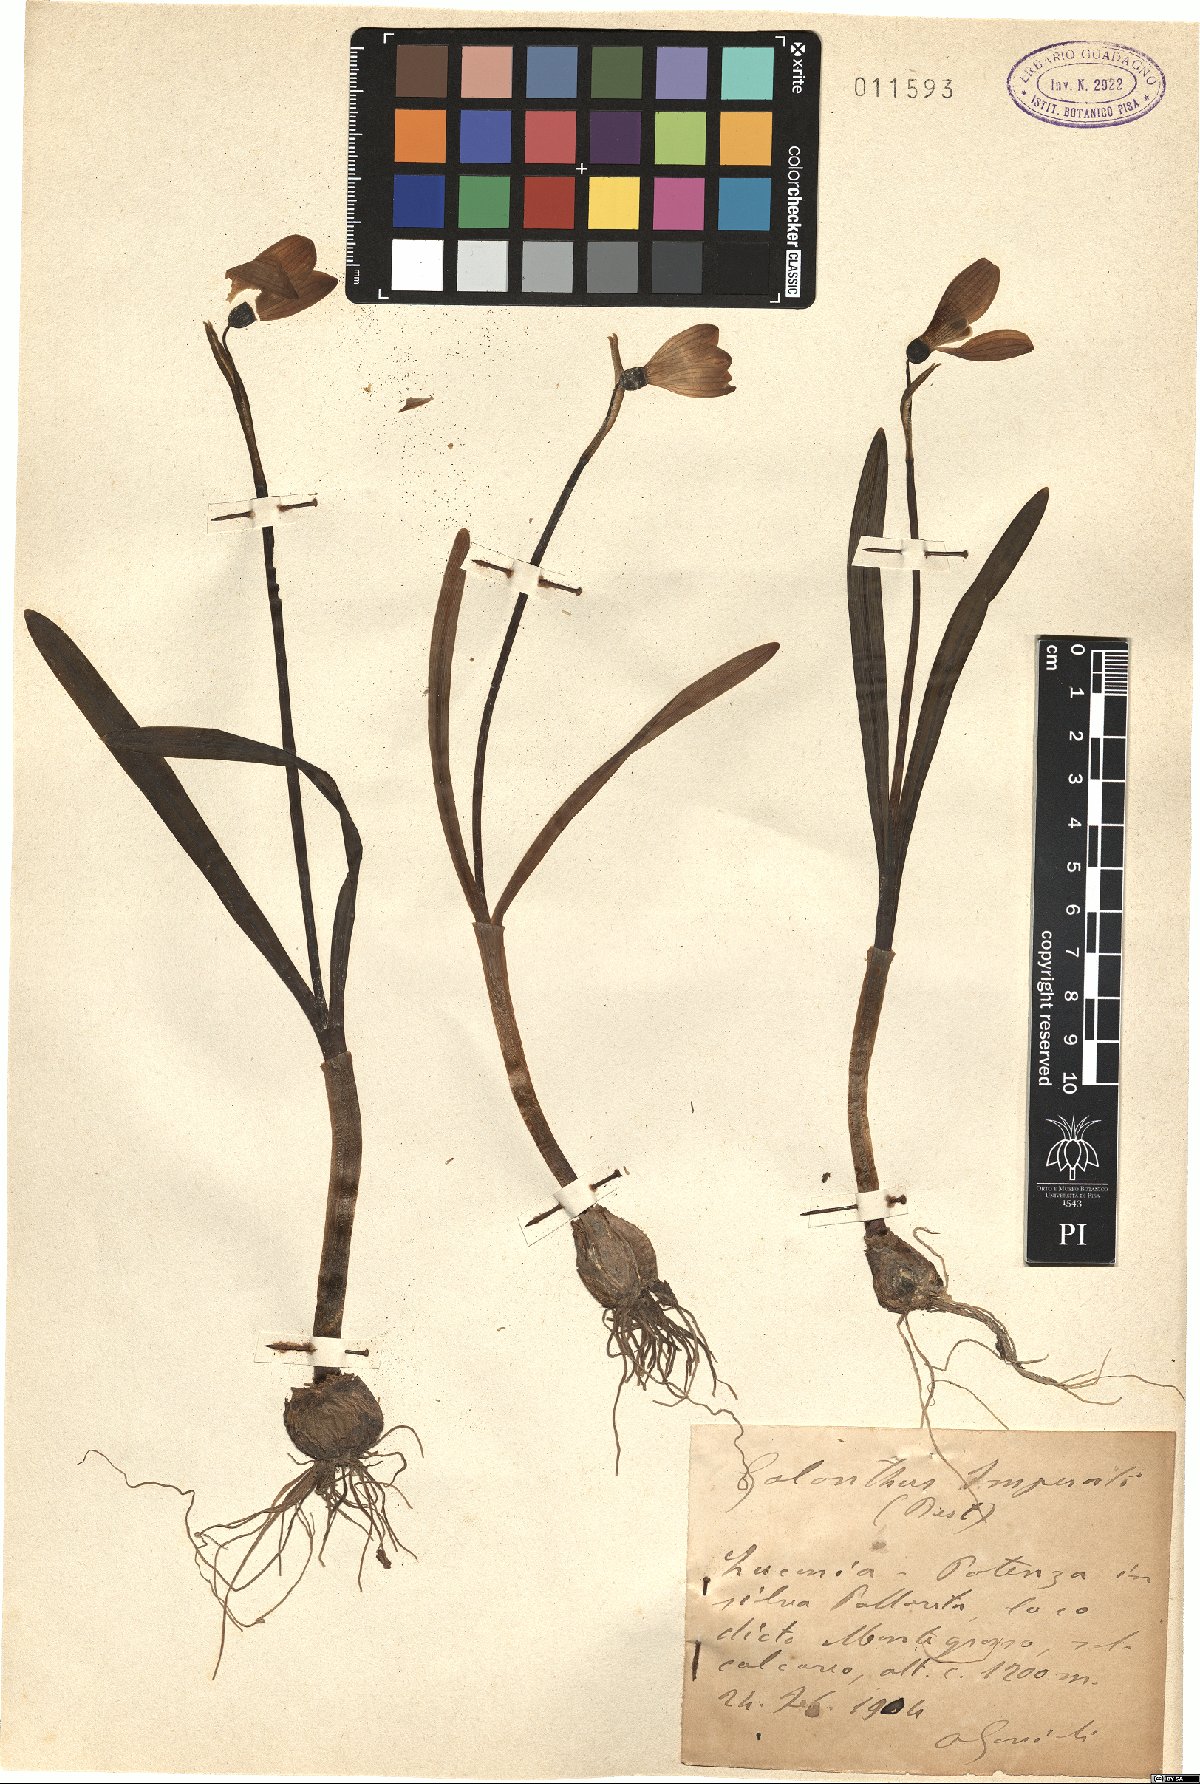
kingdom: Plantae
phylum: Tracheophyta
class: Liliopsida
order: Asparagales
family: Amaryllidaceae
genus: Galanthus
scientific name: Galanthus nivalis
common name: Snowdrop
